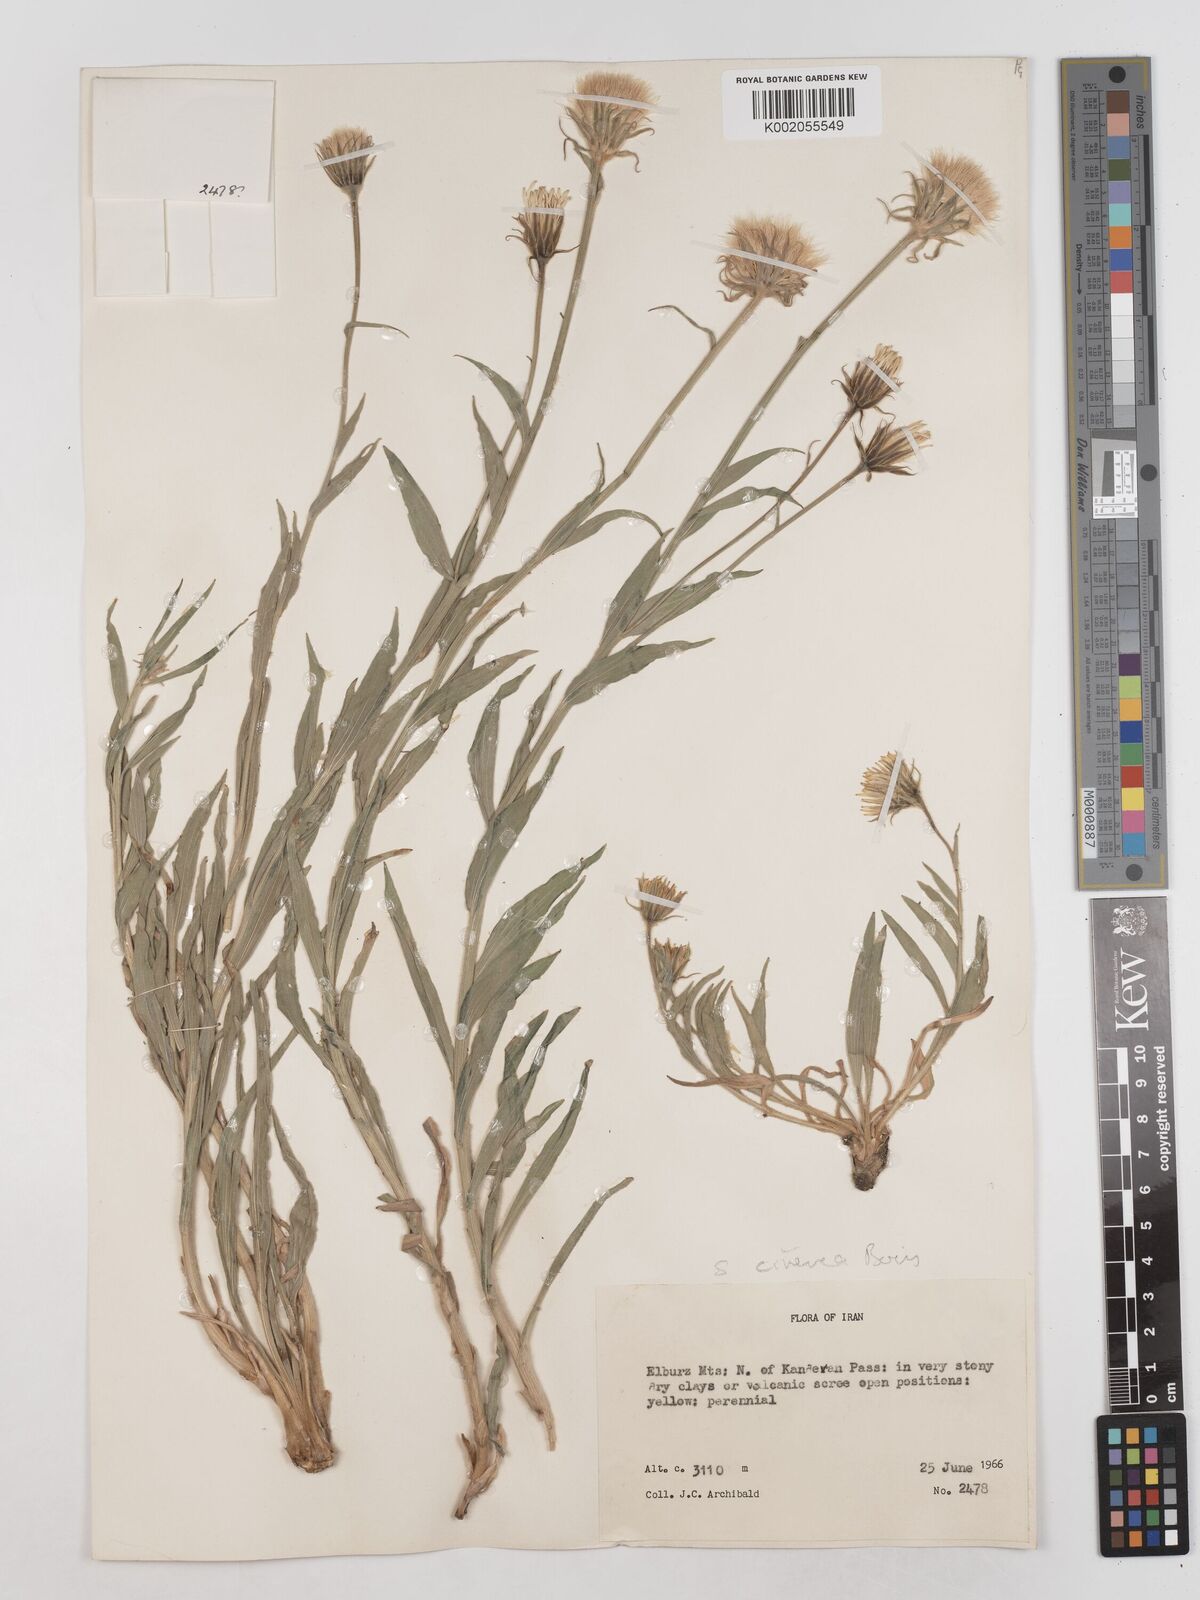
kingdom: Plantae
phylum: Tracheophyta
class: Magnoliopsida
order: Asterales
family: Asteraceae
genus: Cigdemia
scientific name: Cigdemia cinerea
